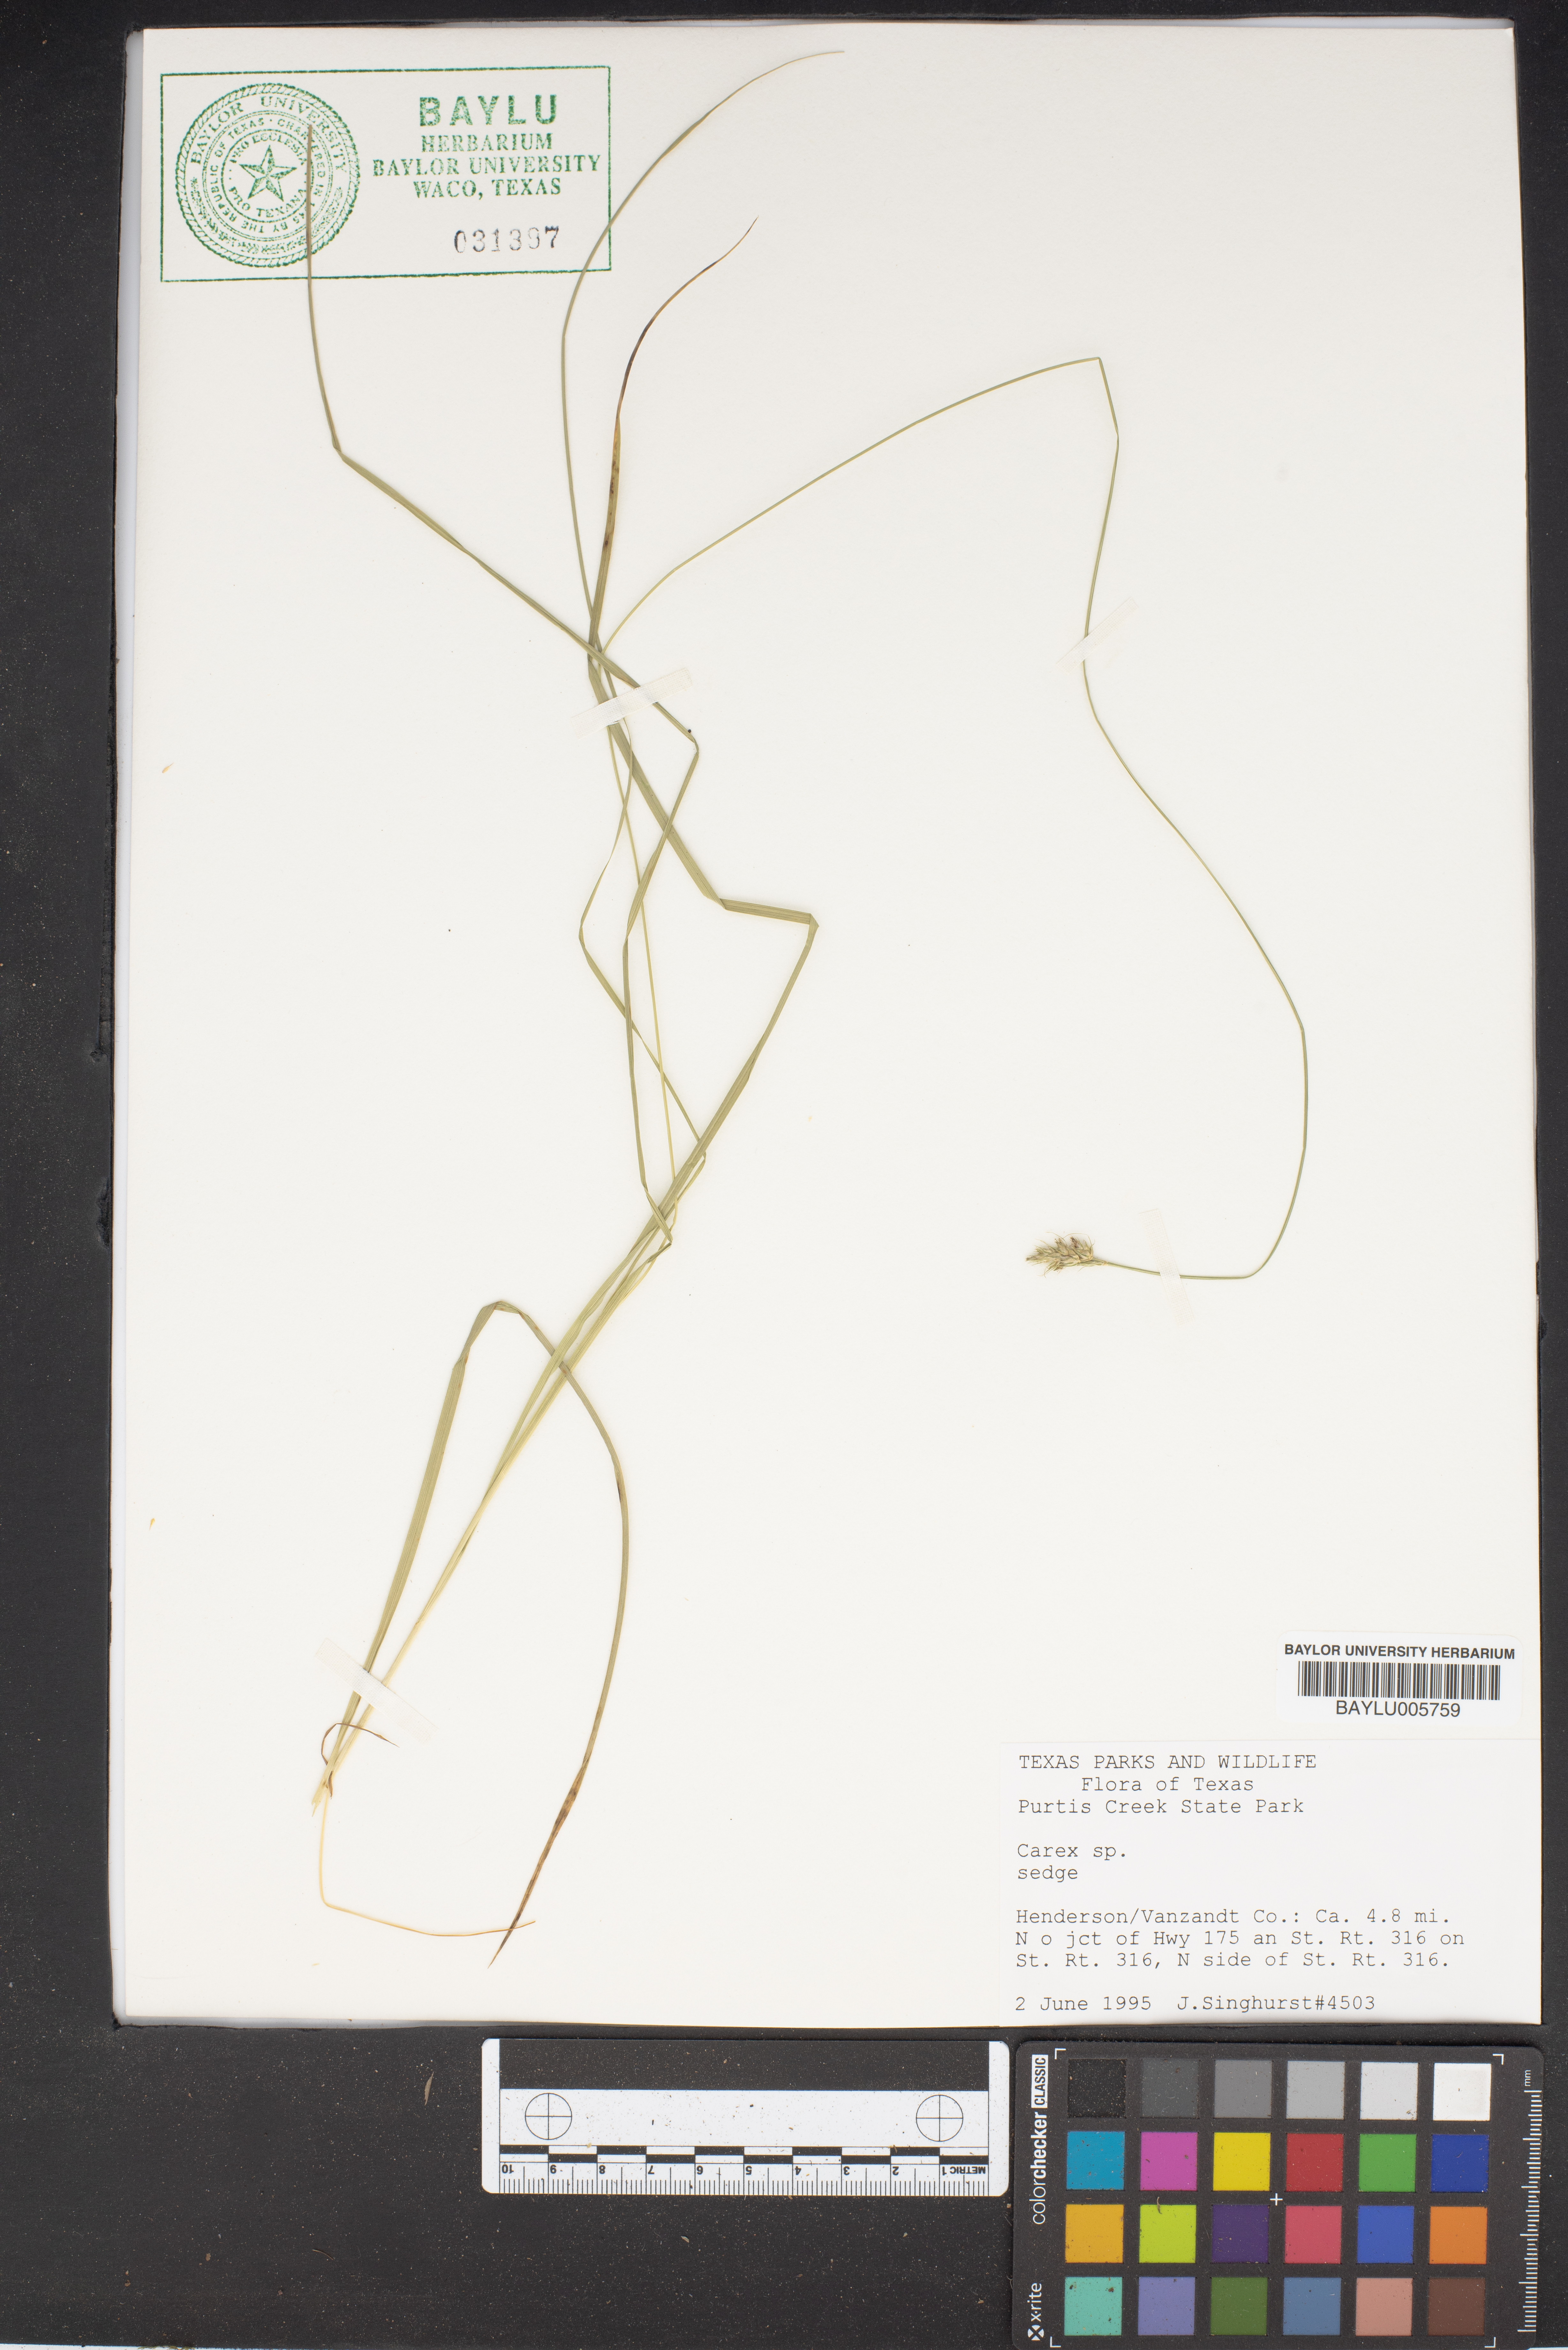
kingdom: Plantae
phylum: Tracheophyta
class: Liliopsida
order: Poales
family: Cyperaceae
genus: Carex
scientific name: Carex
